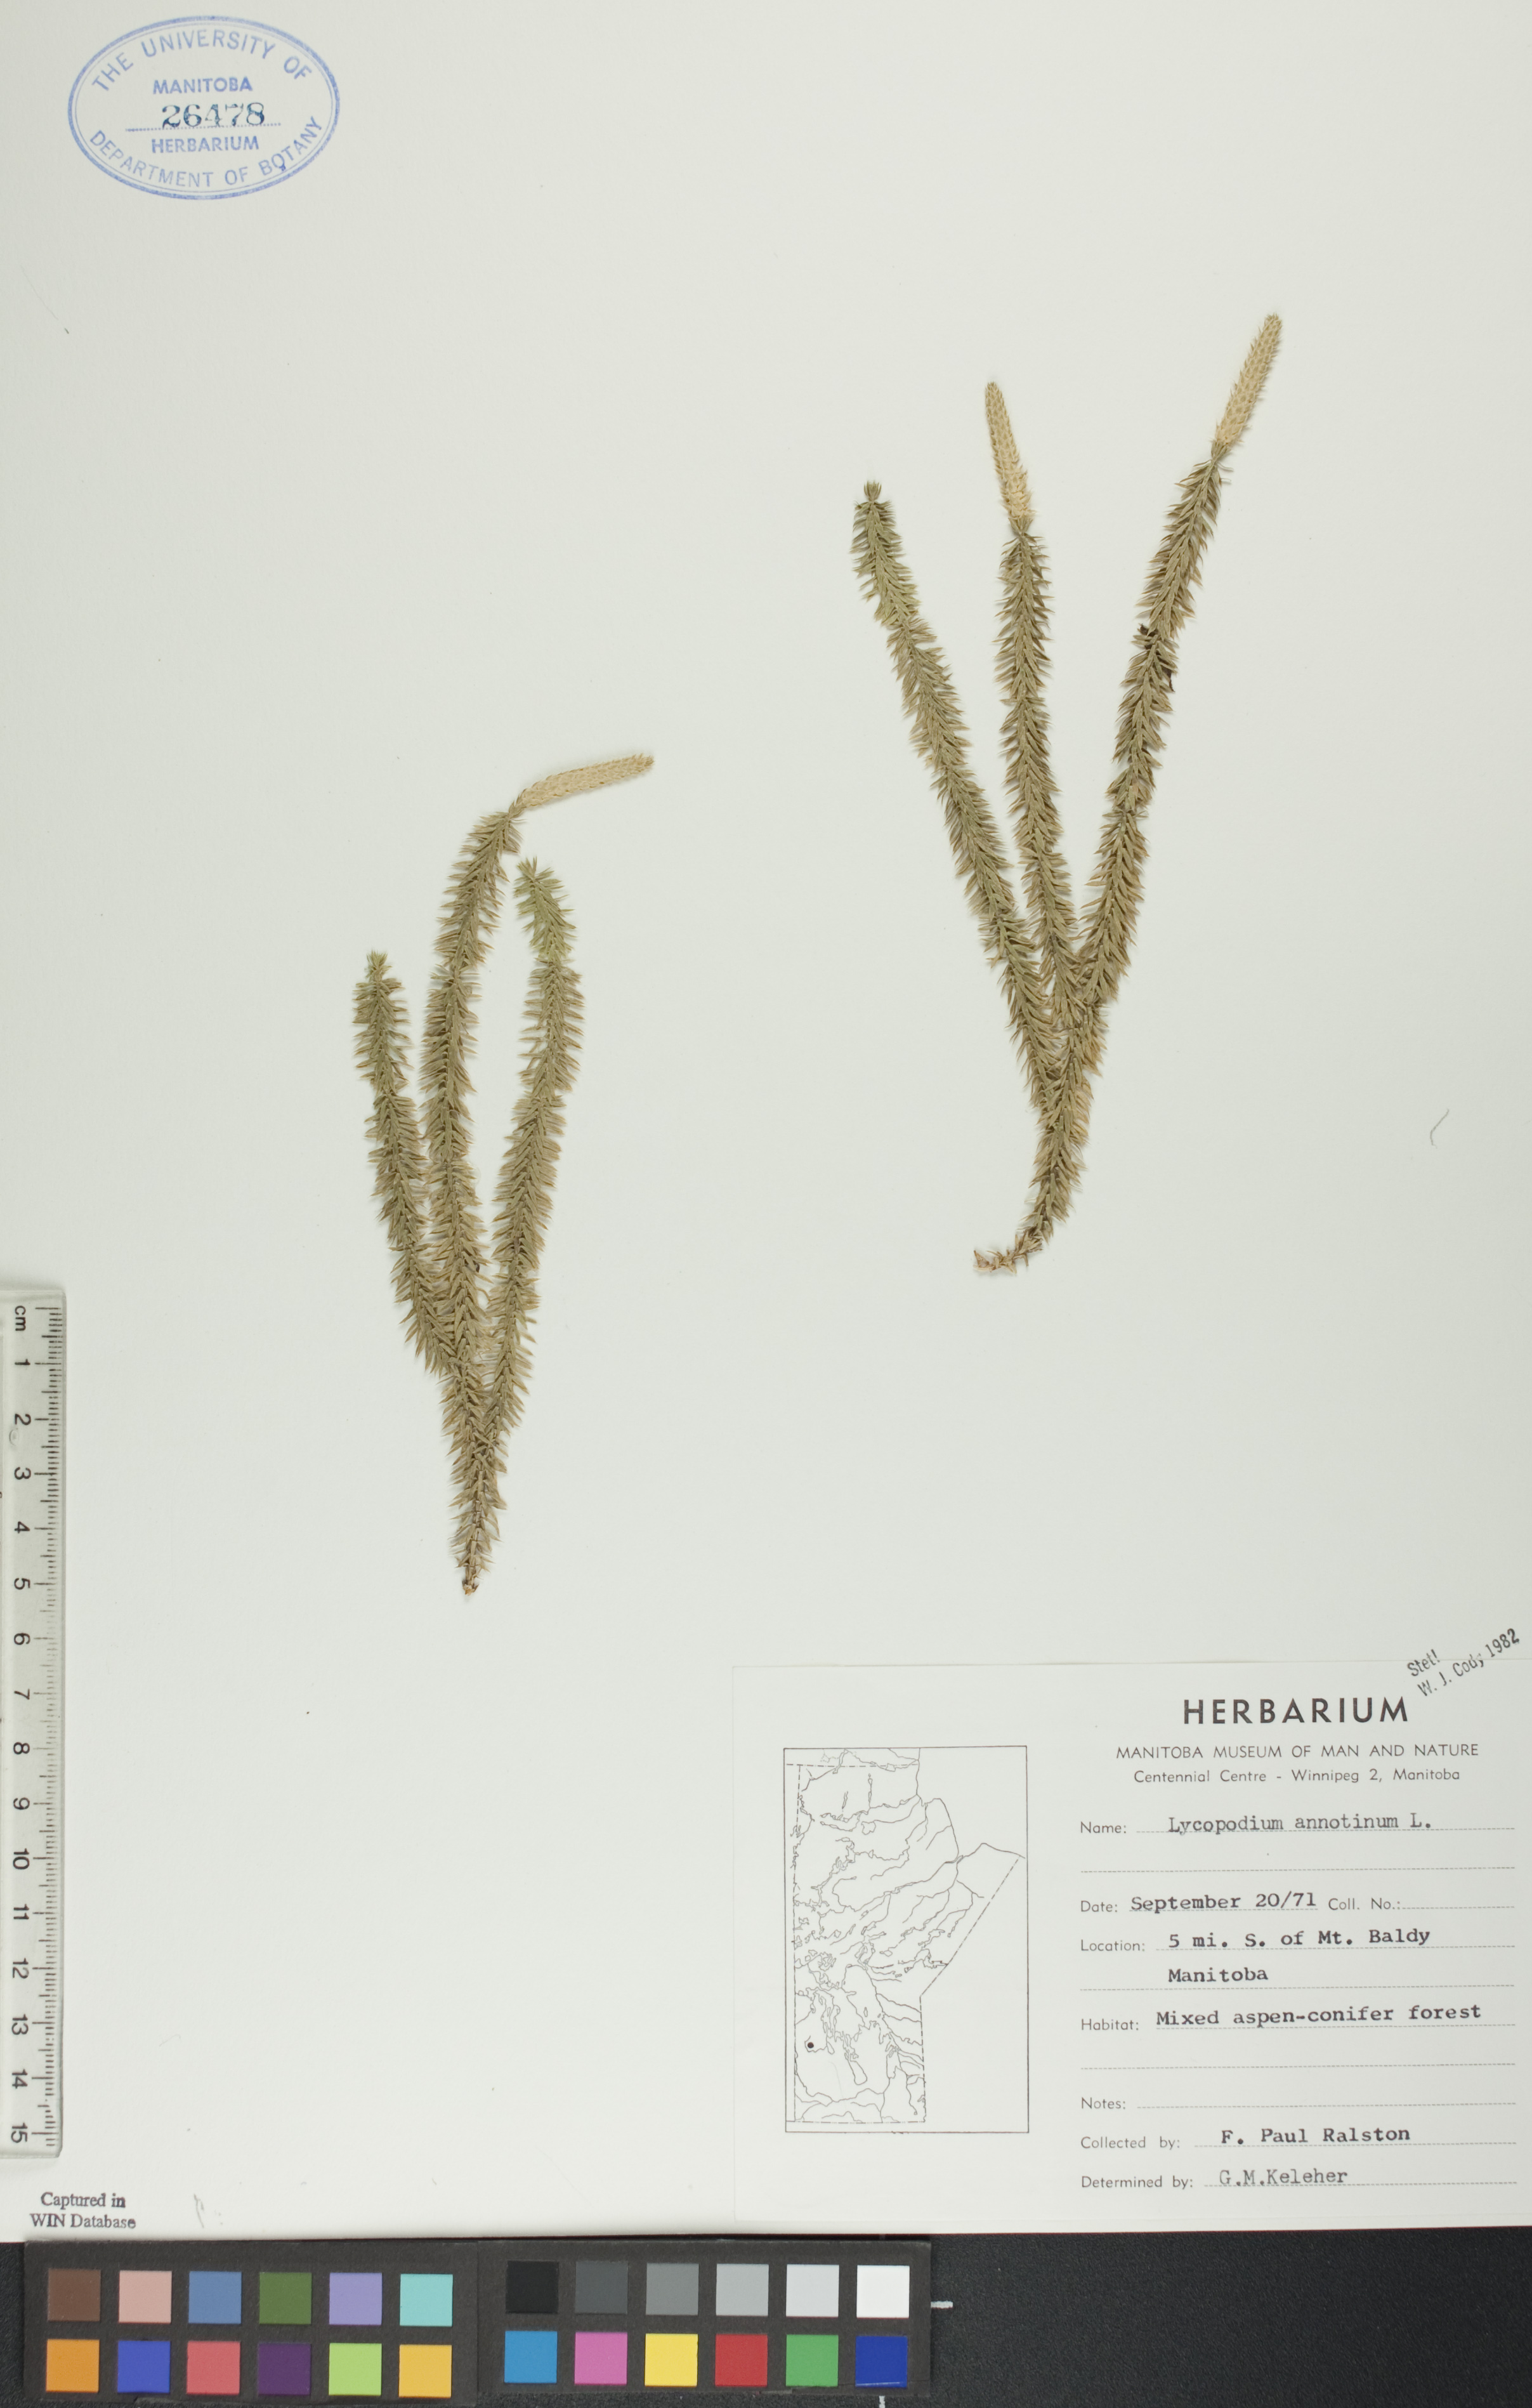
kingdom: Plantae
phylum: Tracheophyta
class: Lycopodiopsida
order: Lycopodiales
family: Lycopodiaceae
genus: Spinulum
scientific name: Spinulum annotinum
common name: Interrupted club-moss
